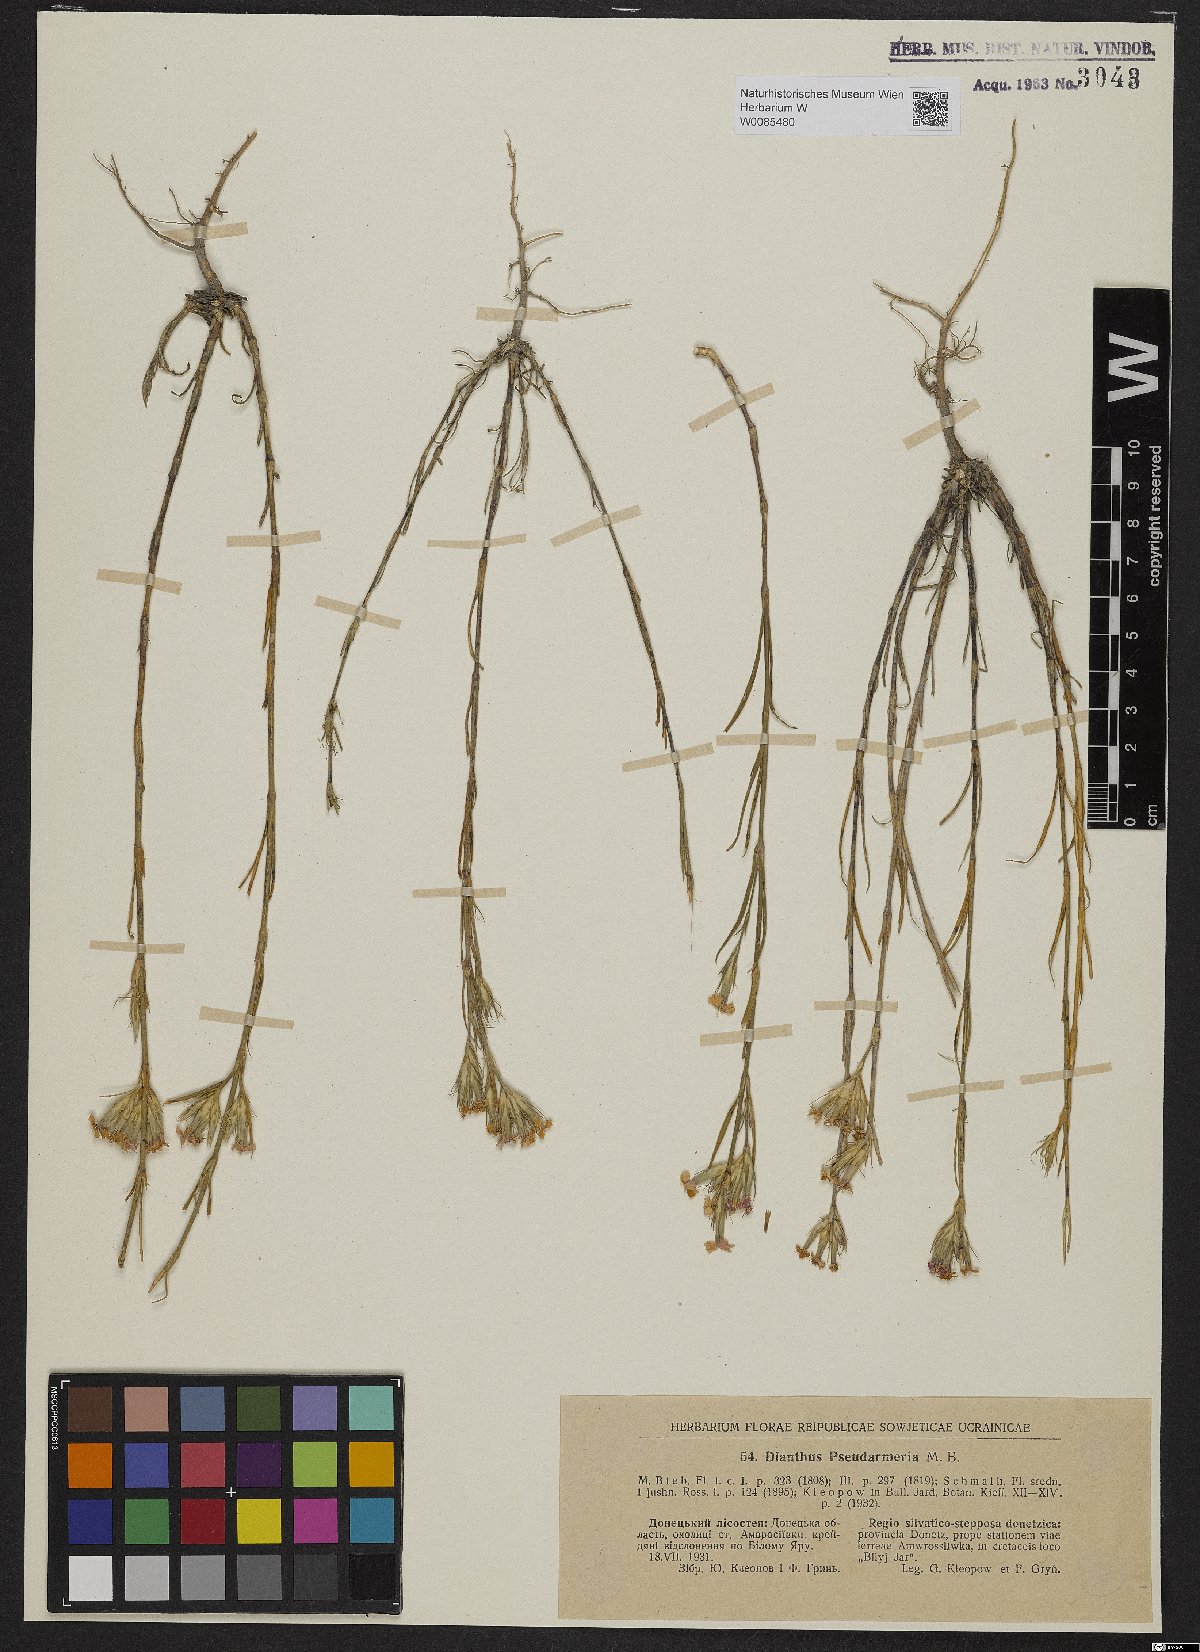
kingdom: Plantae
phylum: Tracheophyta
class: Magnoliopsida
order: Caryophyllales
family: Caryophyllaceae
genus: Dianthus
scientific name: Dianthus pseudarmeria
